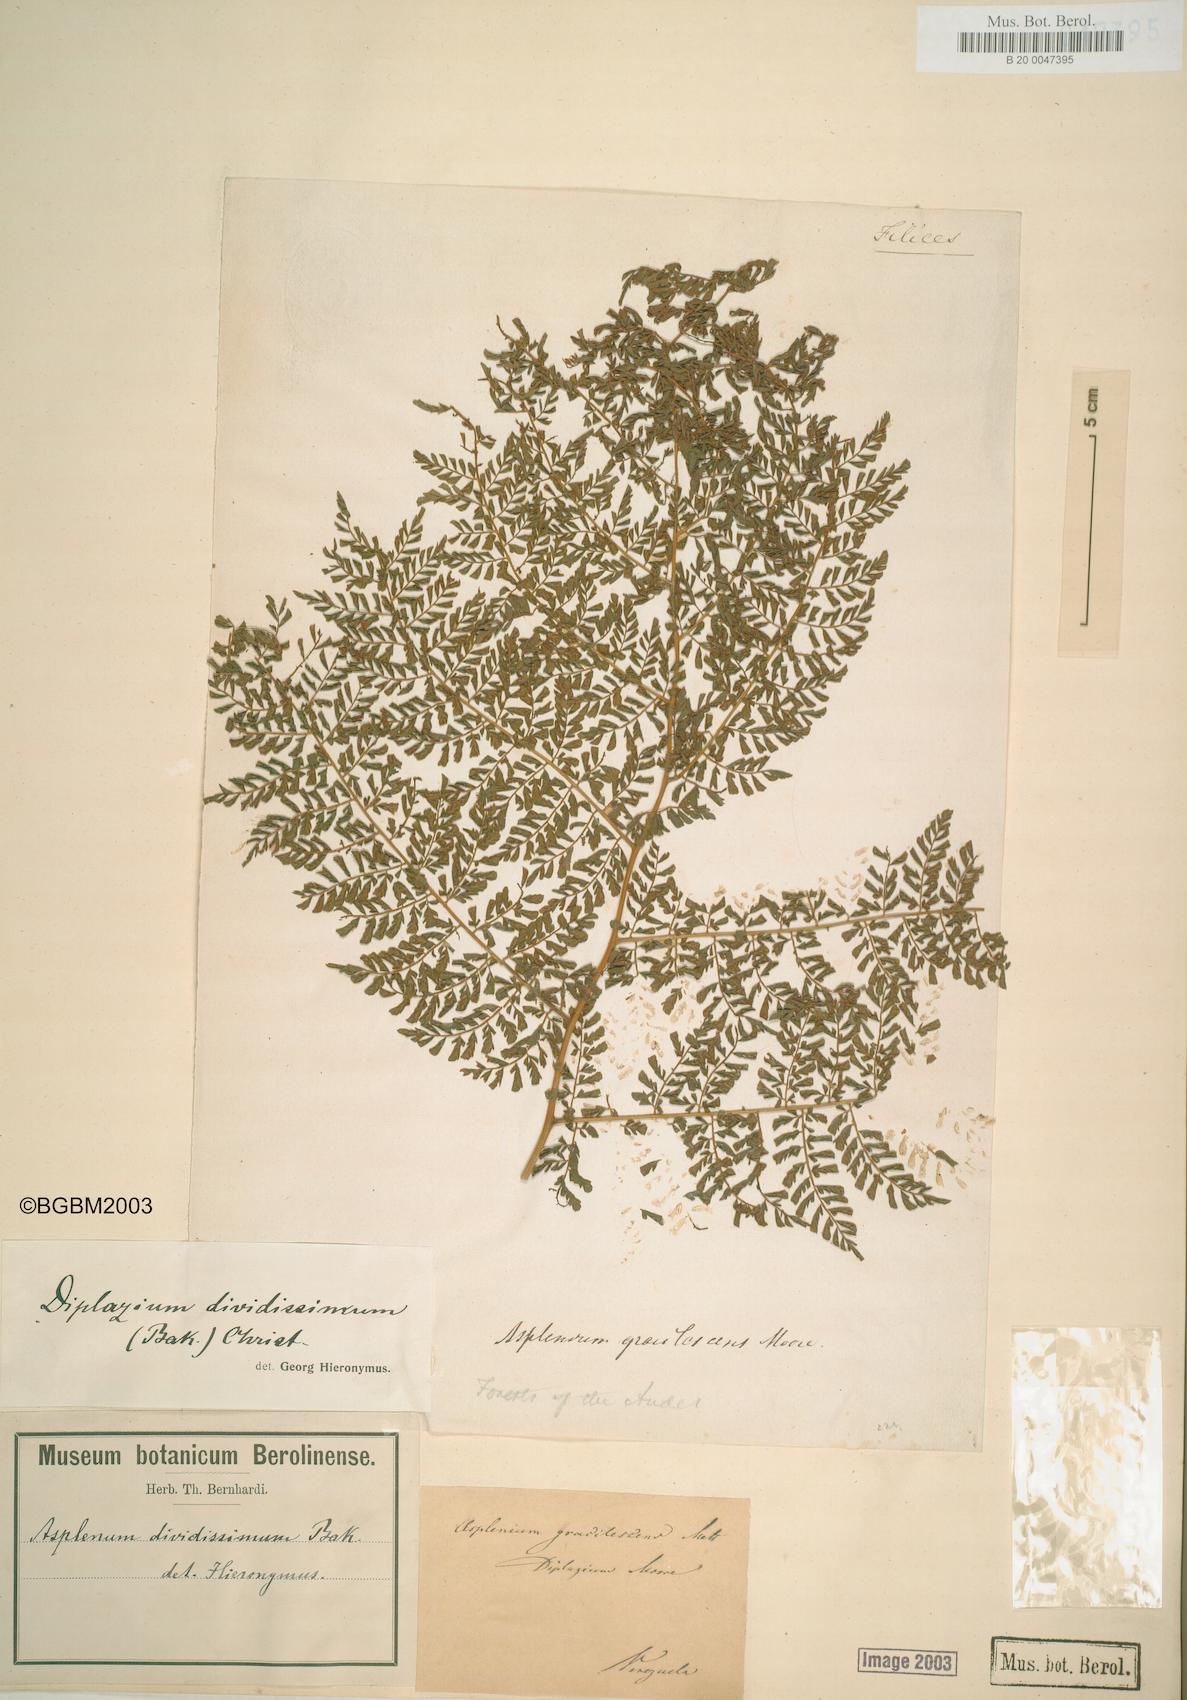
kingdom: Plantae
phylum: Tracheophyta
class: Polypodiopsida
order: Polypodiales
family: Athyriaceae
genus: Diplazium
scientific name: Diplazium divisissimum
